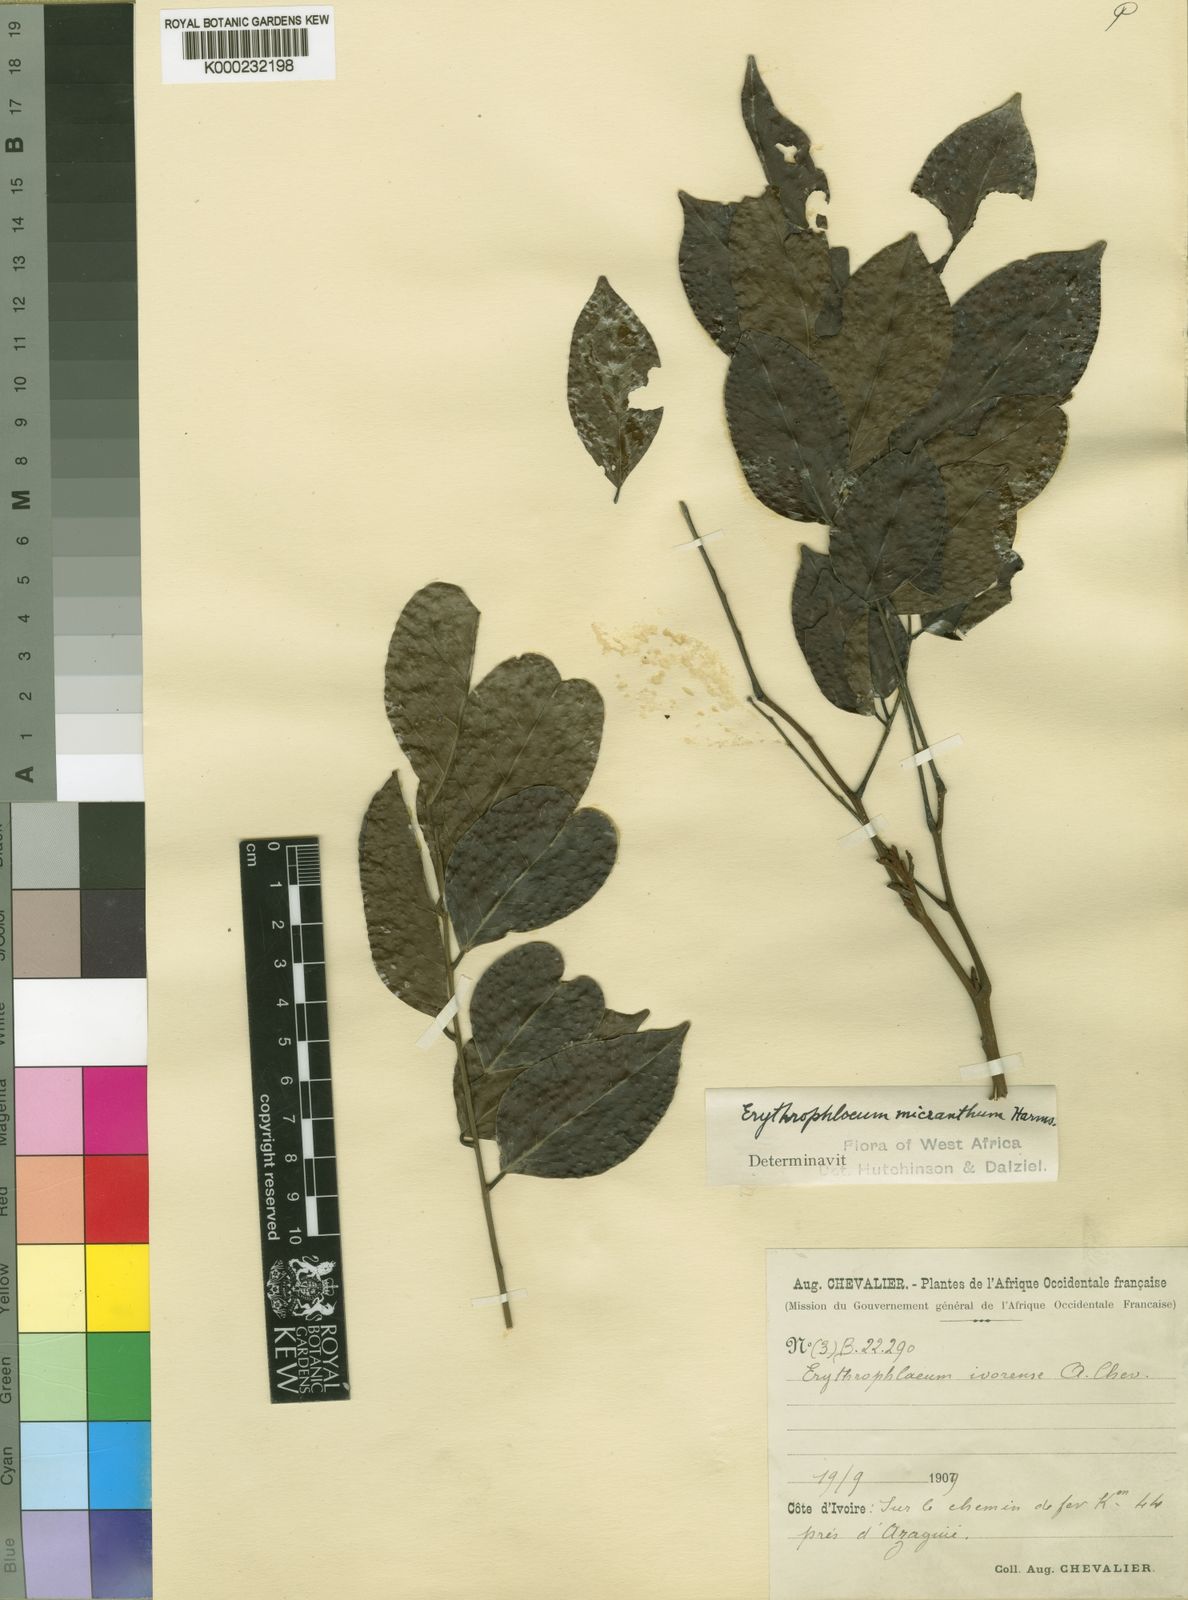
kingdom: Plantae
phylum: Tracheophyta
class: Magnoliopsida
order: Fabales
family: Fabaceae
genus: Erythrophleum
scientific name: Erythrophleum ivorense
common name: Ordealtree
